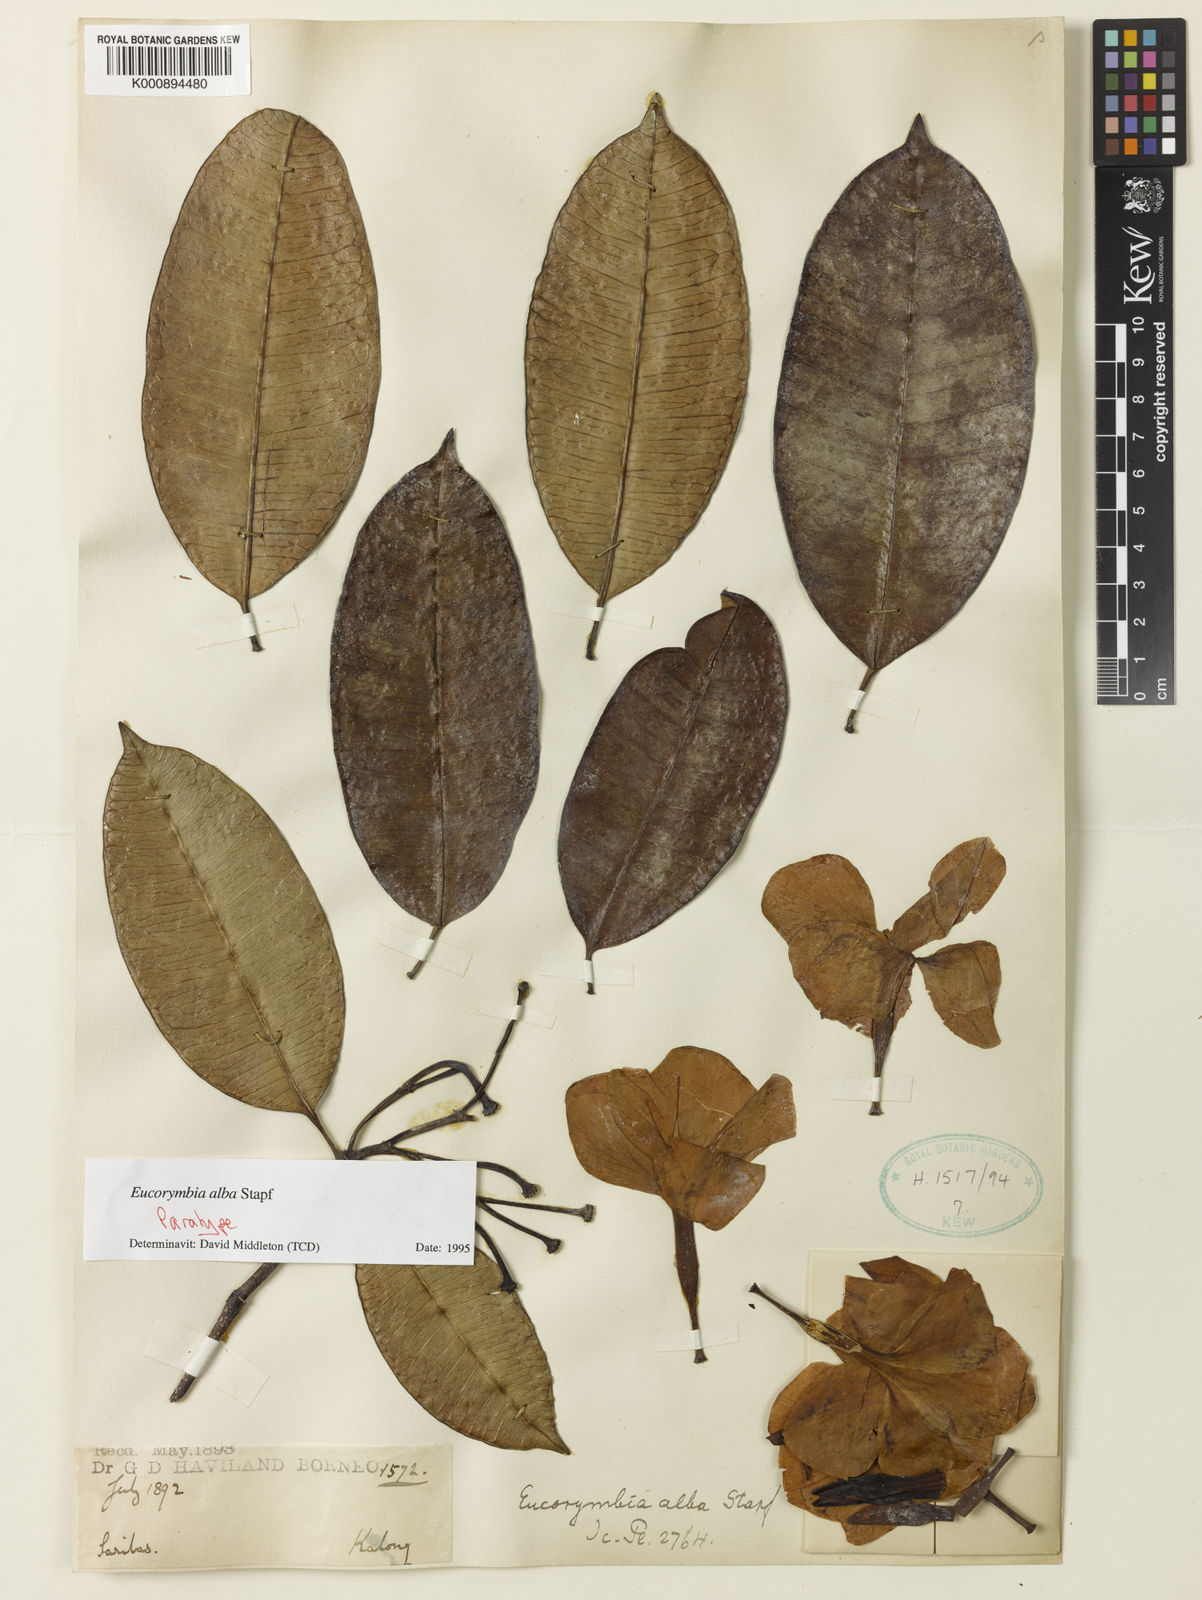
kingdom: Plantae
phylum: Tracheophyta
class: Magnoliopsida
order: Gentianales
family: Apocynaceae
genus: Eucorymbia
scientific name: Eucorymbia alba
